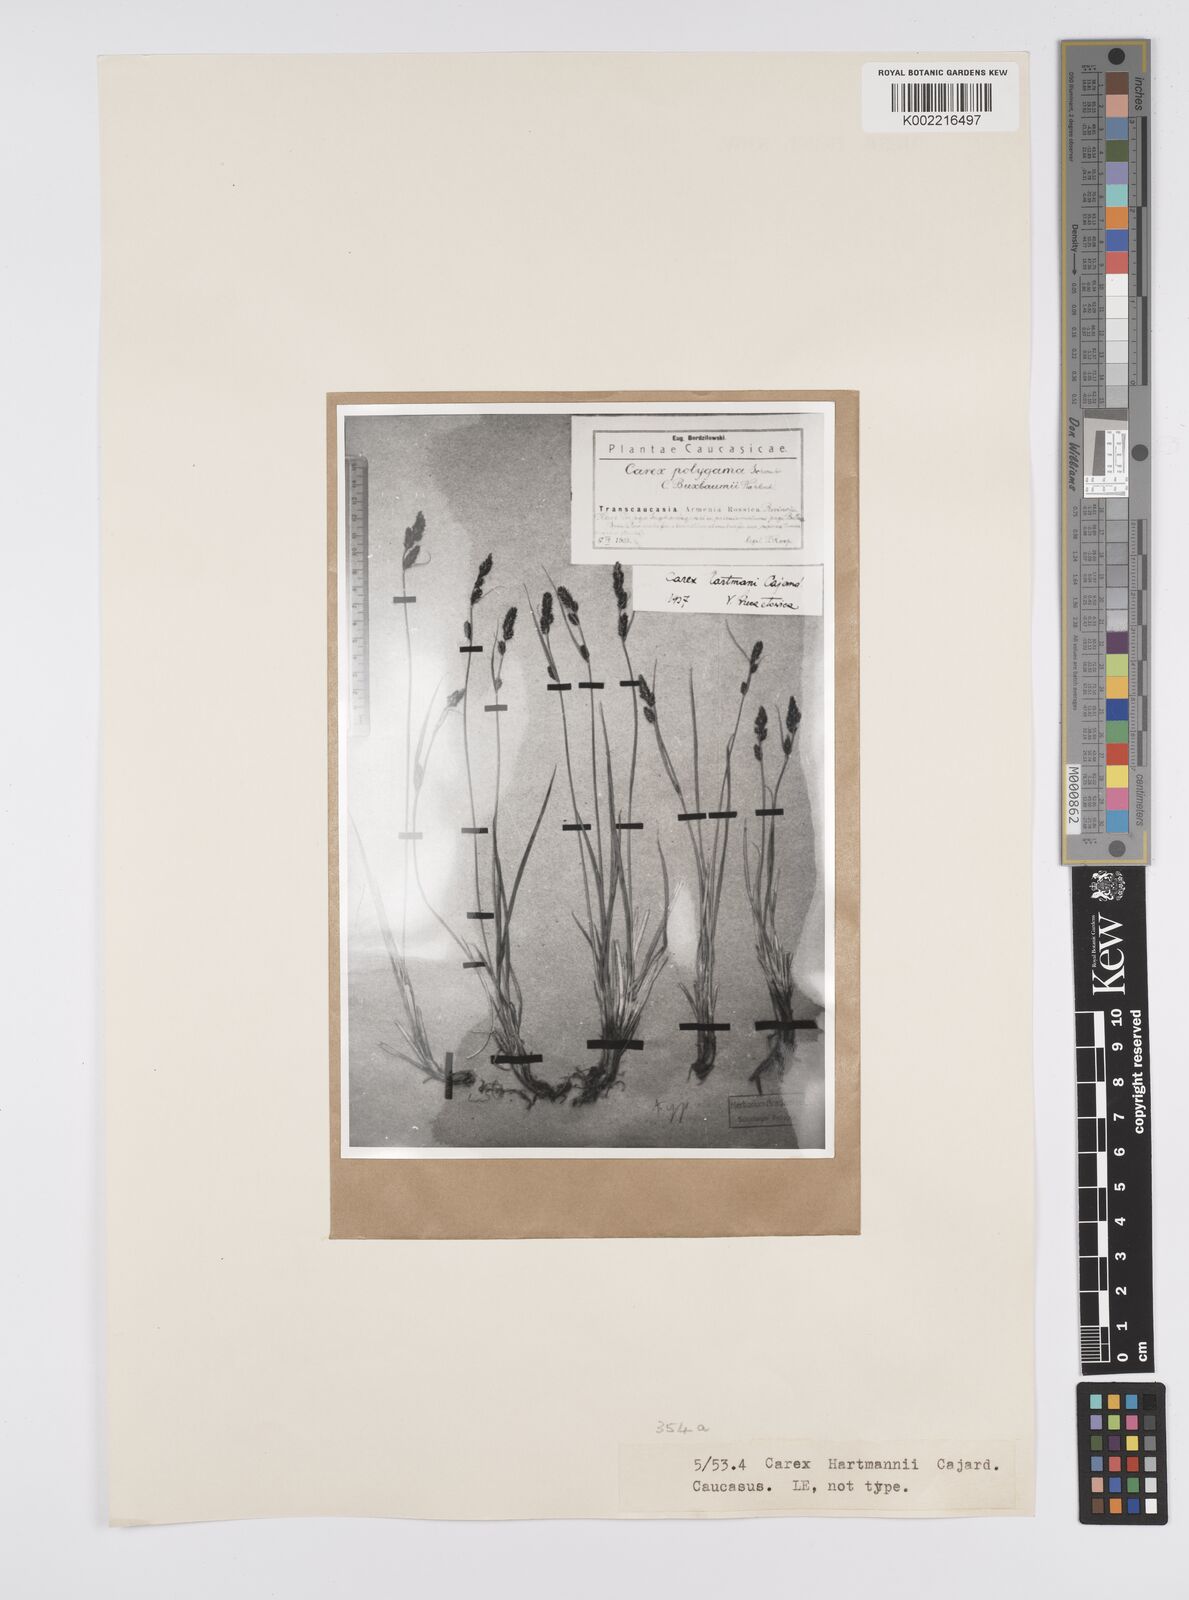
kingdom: Plantae
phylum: Tracheophyta
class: Liliopsida
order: Poales
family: Cyperaceae
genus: Carex
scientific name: Carex hartmaniorum
